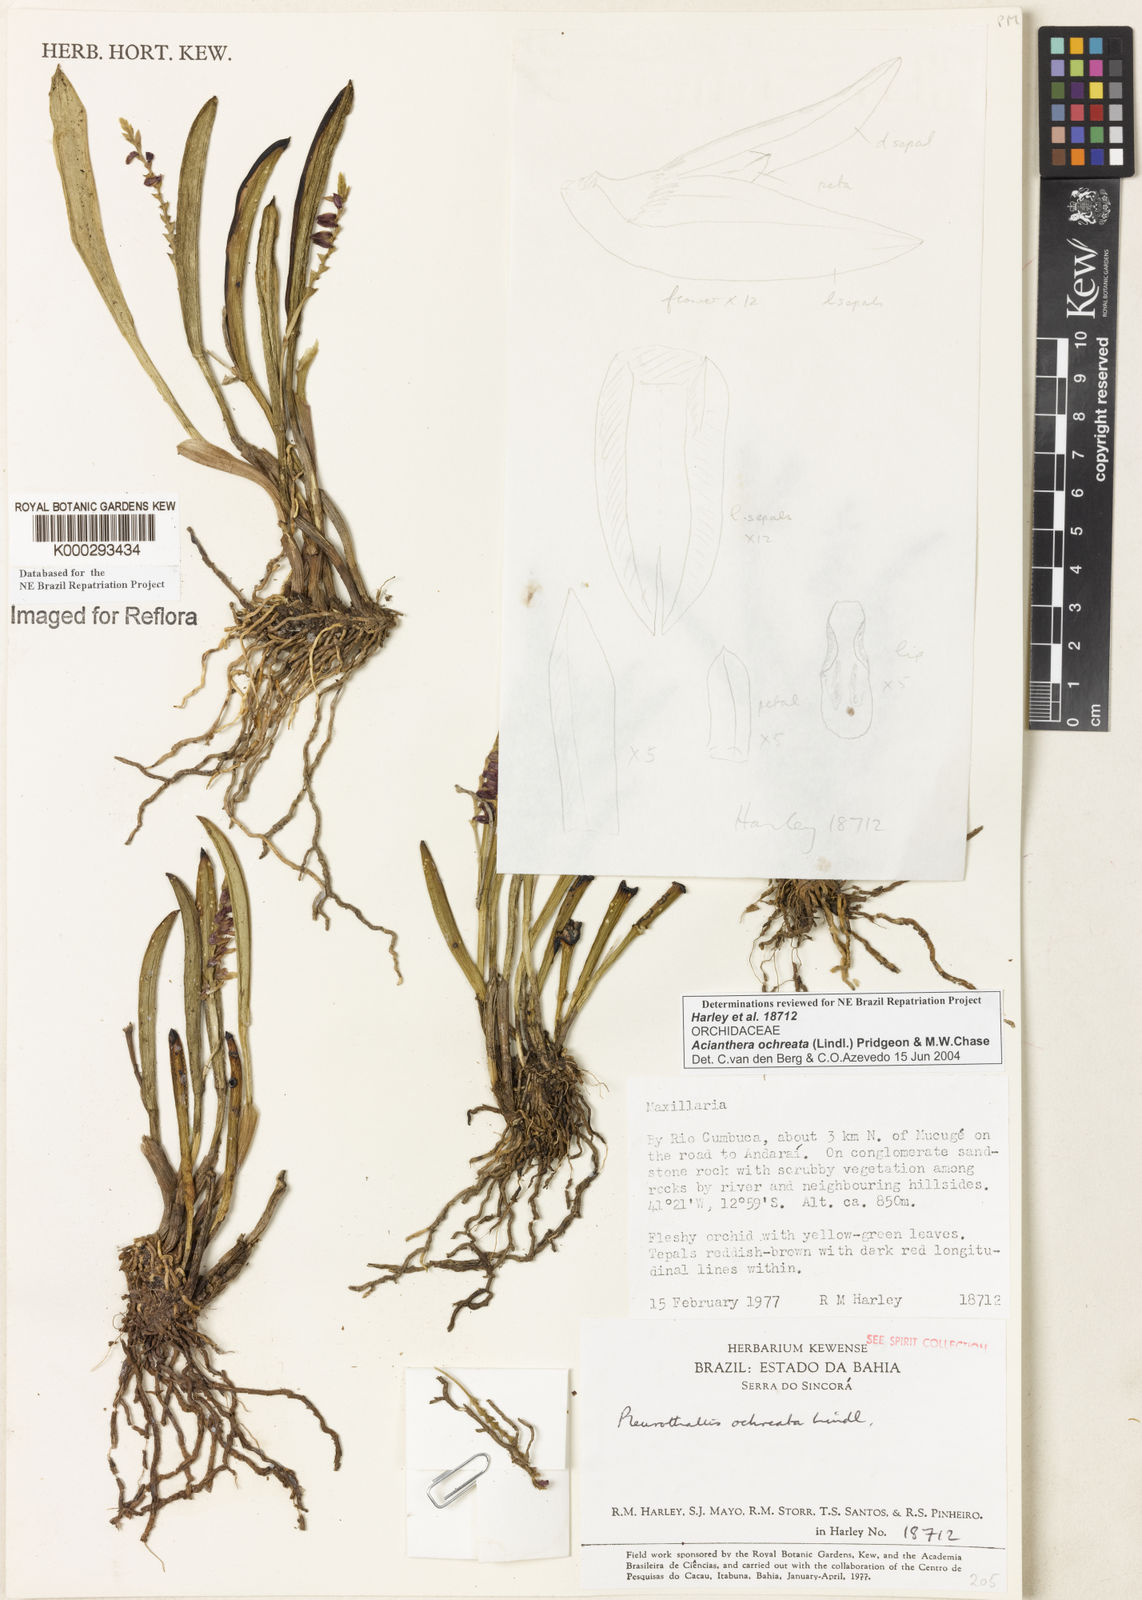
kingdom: Plantae
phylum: Tracheophyta
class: Liliopsida
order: Asparagales
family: Orchidaceae
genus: Acianthera
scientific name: Acianthera ochreata
